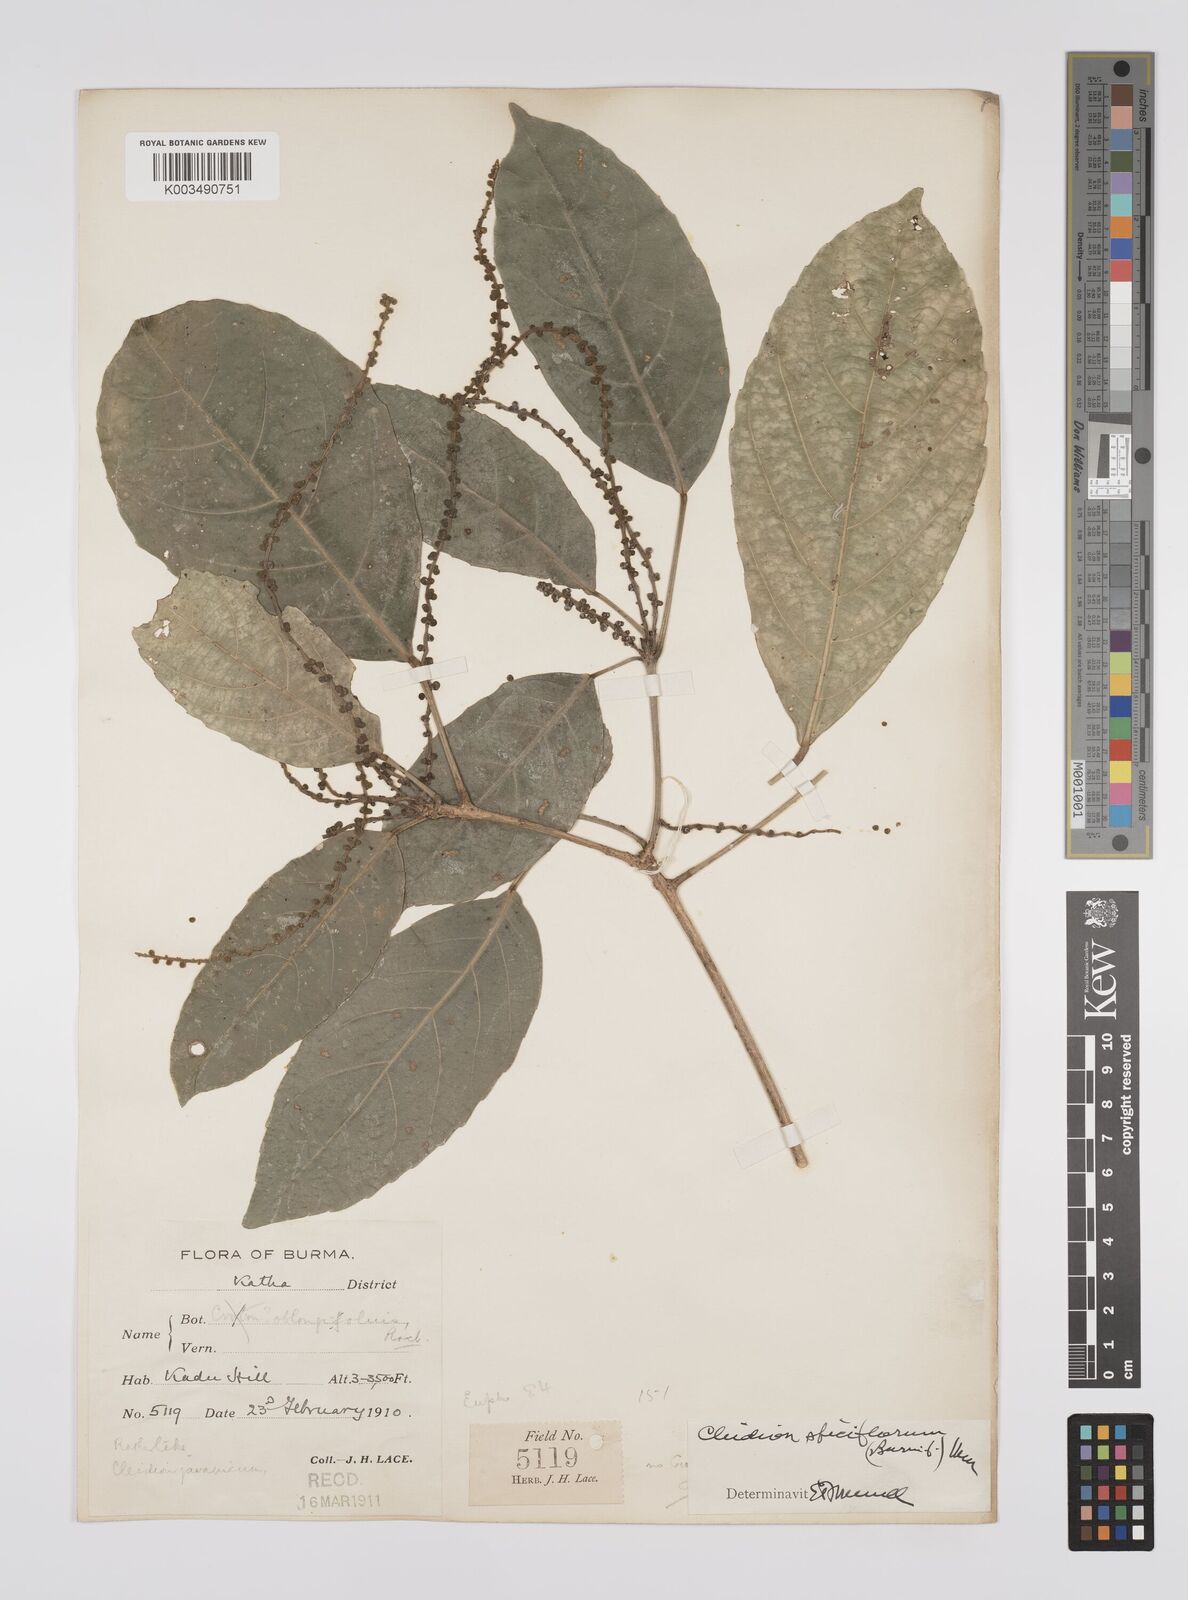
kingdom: Plantae
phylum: Tracheophyta
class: Magnoliopsida
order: Malpighiales
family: Euphorbiaceae
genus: Acalypha
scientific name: Acalypha spiciflora
